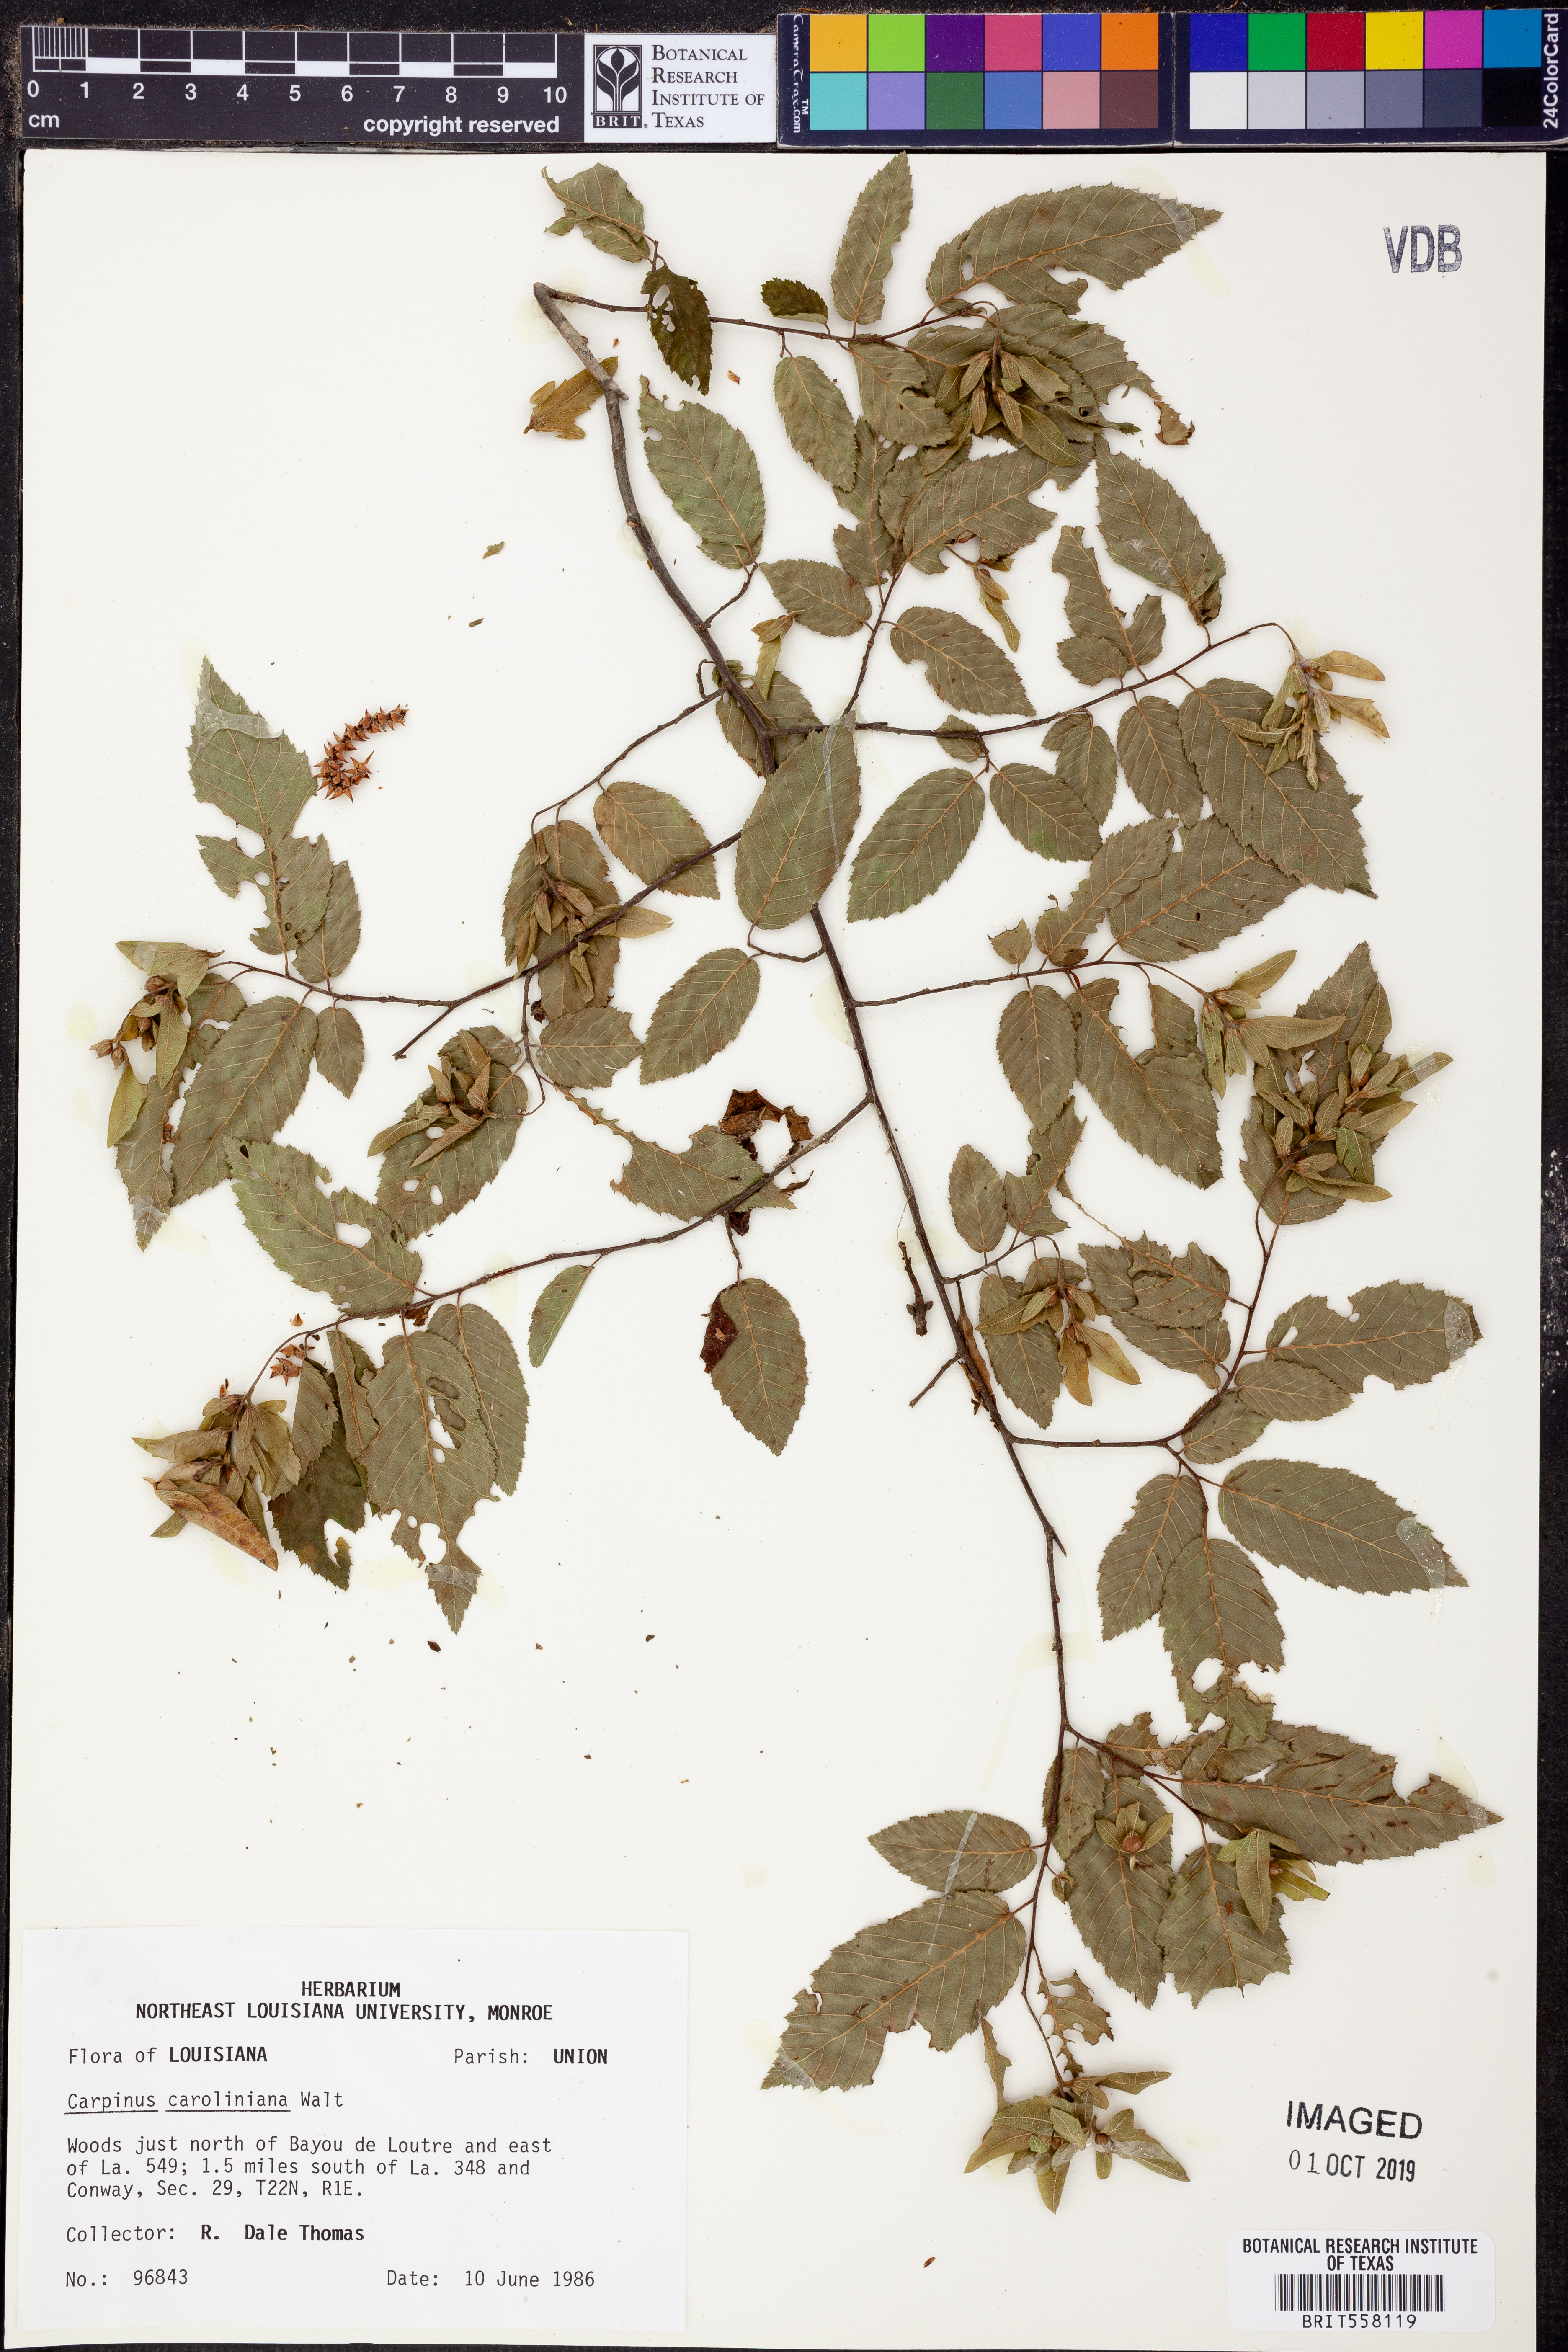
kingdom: Plantae
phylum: Tracheophyta
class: Magnoliopsida
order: Fagales
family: Betulaceae
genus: Carpinus
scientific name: Carpinus caroliniana
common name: American hornbeam
